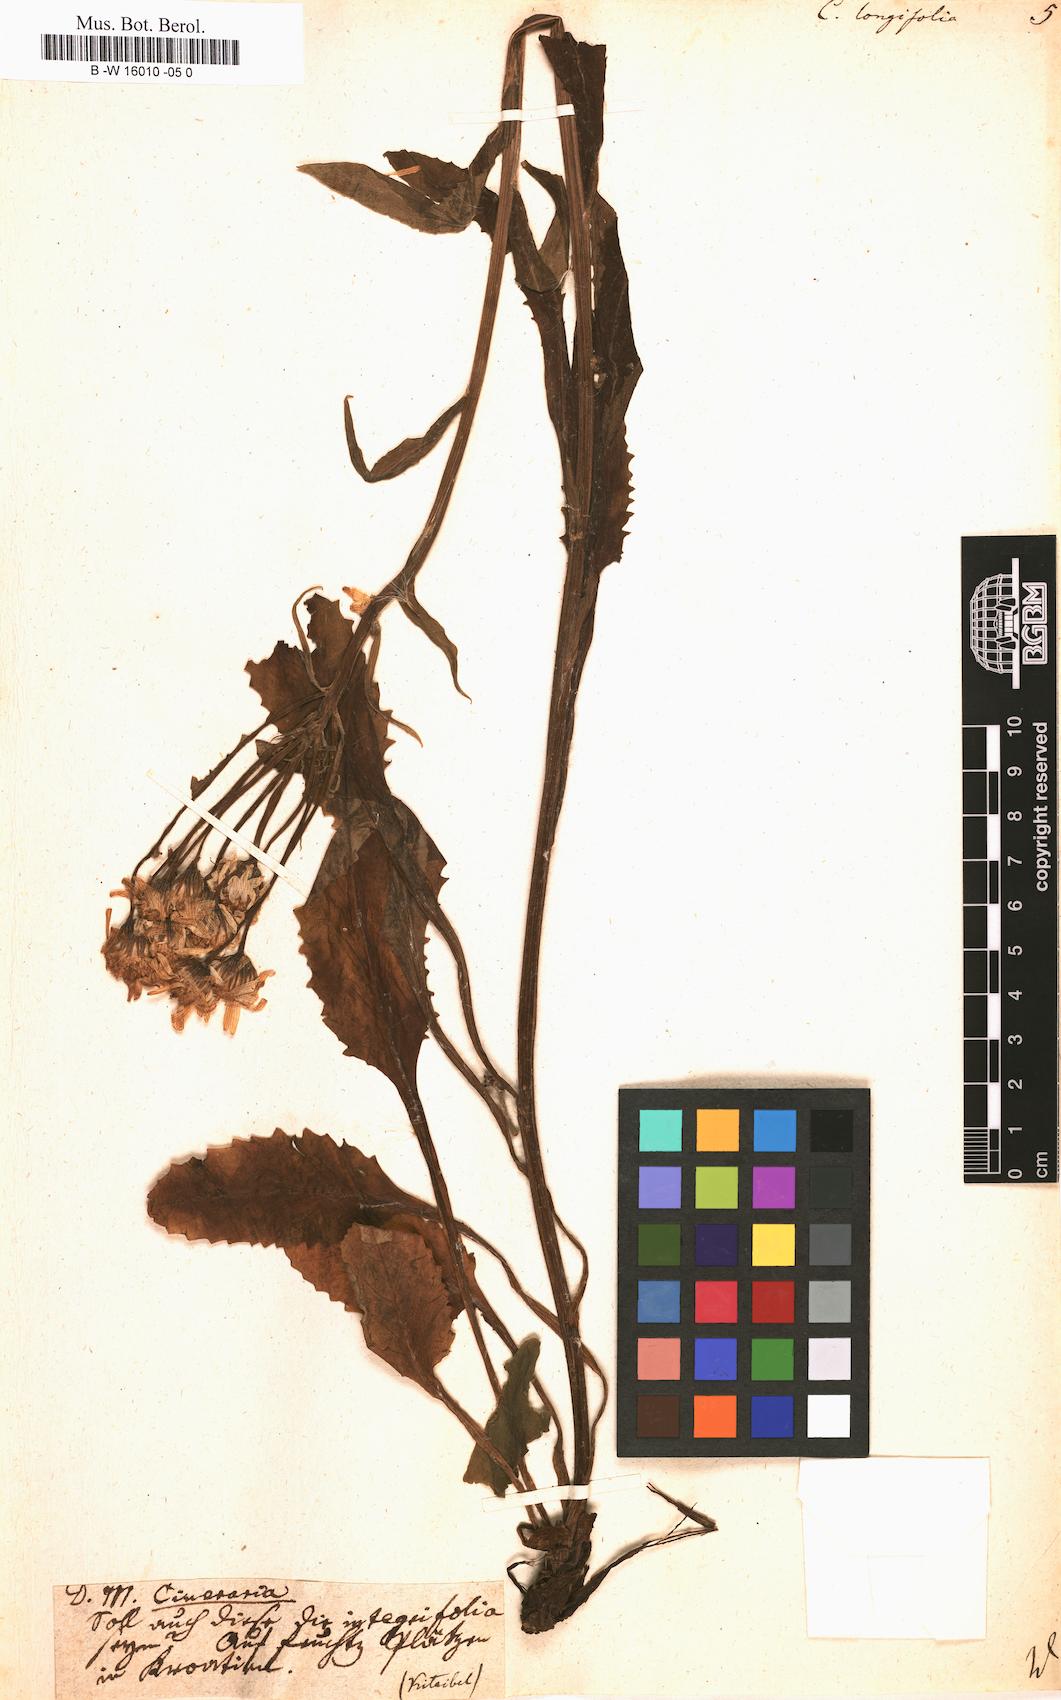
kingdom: Plantae
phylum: Tracheophyta
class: Magnoliopsida
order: Asterales
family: Asteraceae
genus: Tephroseris
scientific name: Tephroseris
